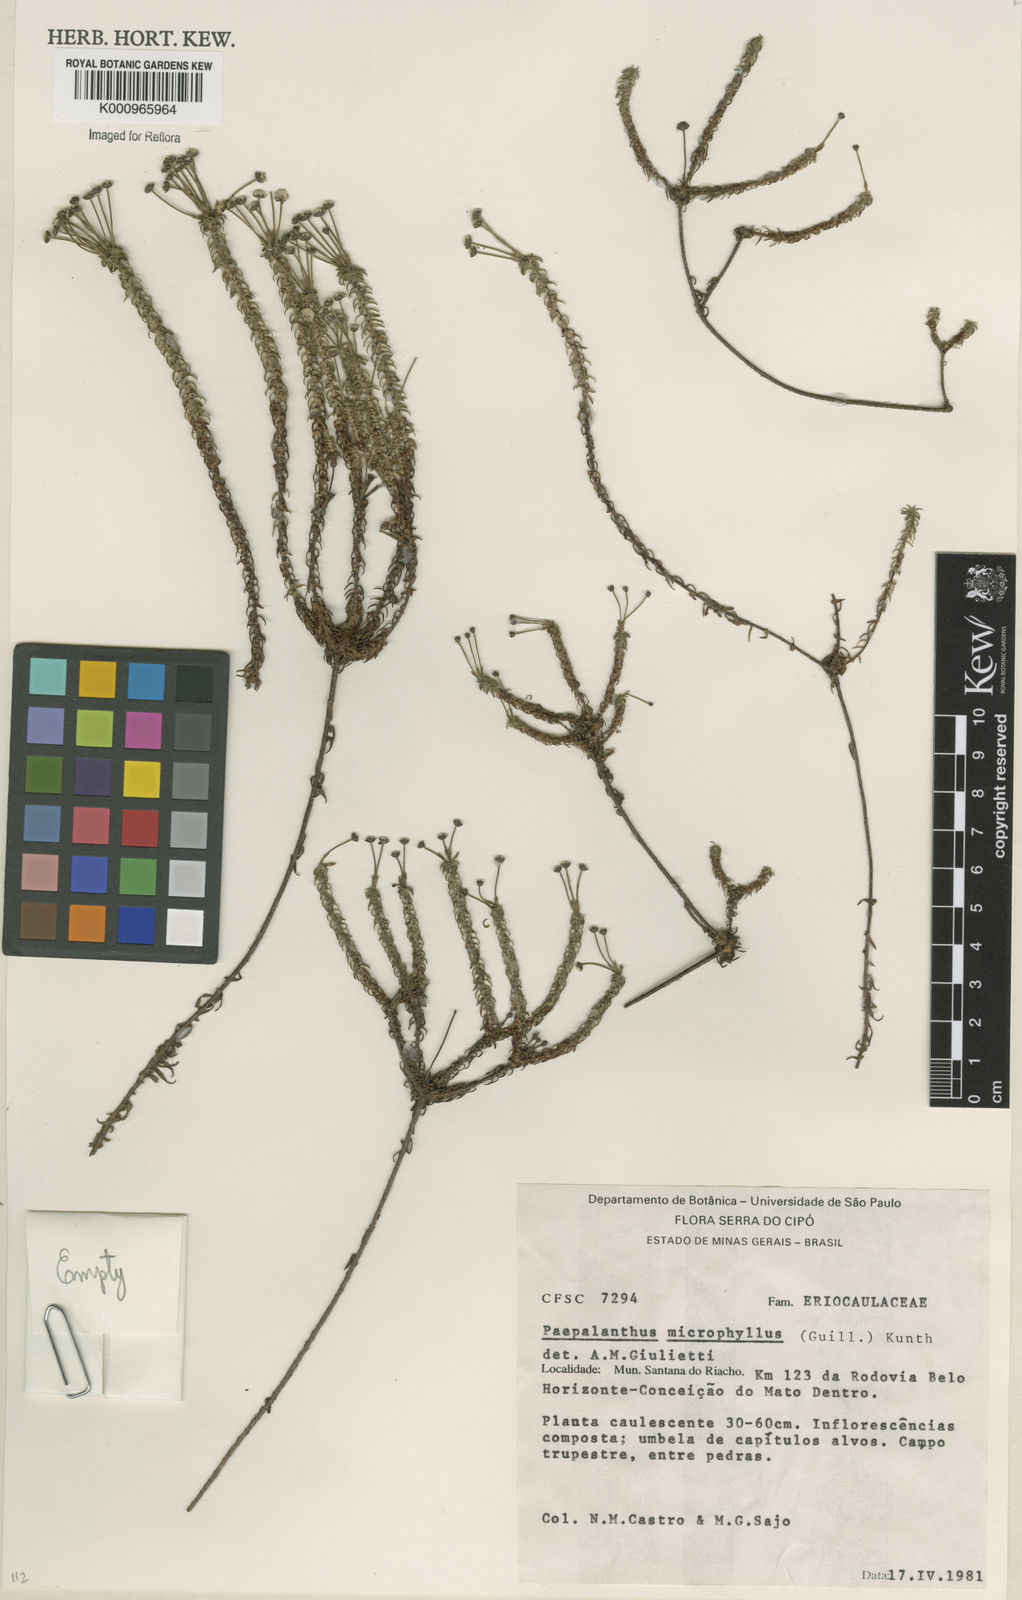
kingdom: Plantae
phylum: Tracheophyta
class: Liliopsida
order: Poales
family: Eriocaulaceae
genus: Paepalanthus
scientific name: Paepalanthus dasynema
